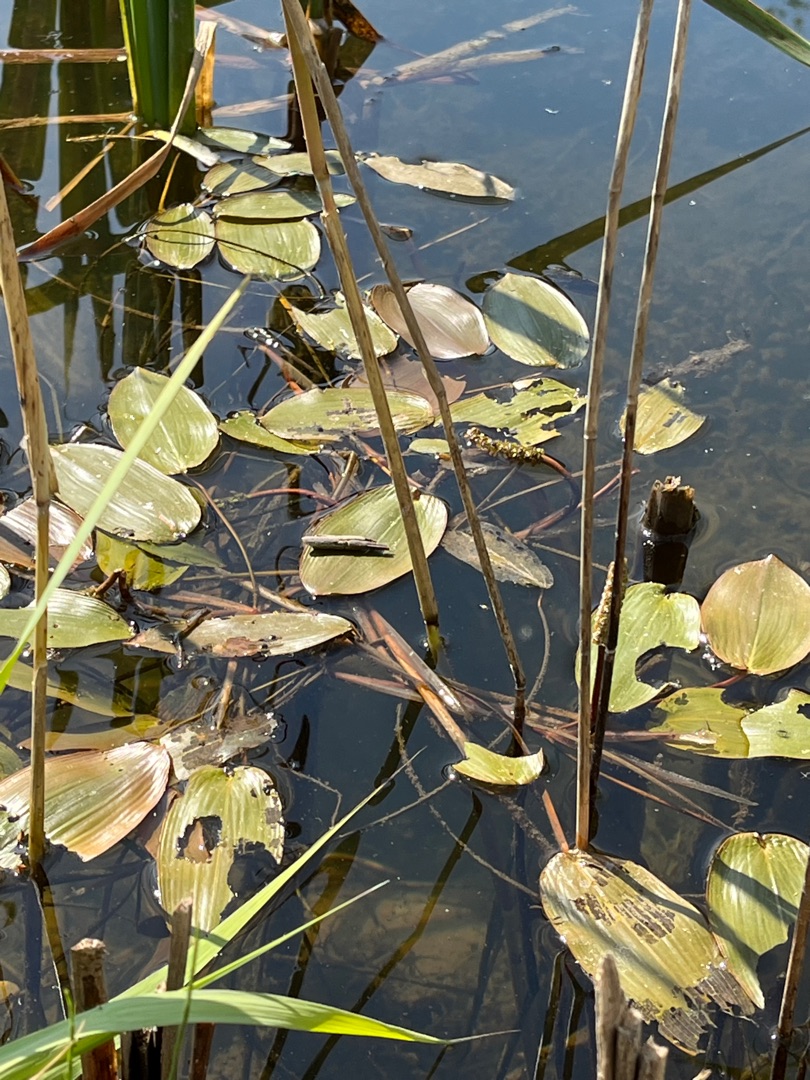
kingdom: Plantae
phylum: Tracheophyta
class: Liliopsida
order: Alismatales
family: Potamogetonaceae
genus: Potamogeton
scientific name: Potamogeton natans
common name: Svømmende vandaks
